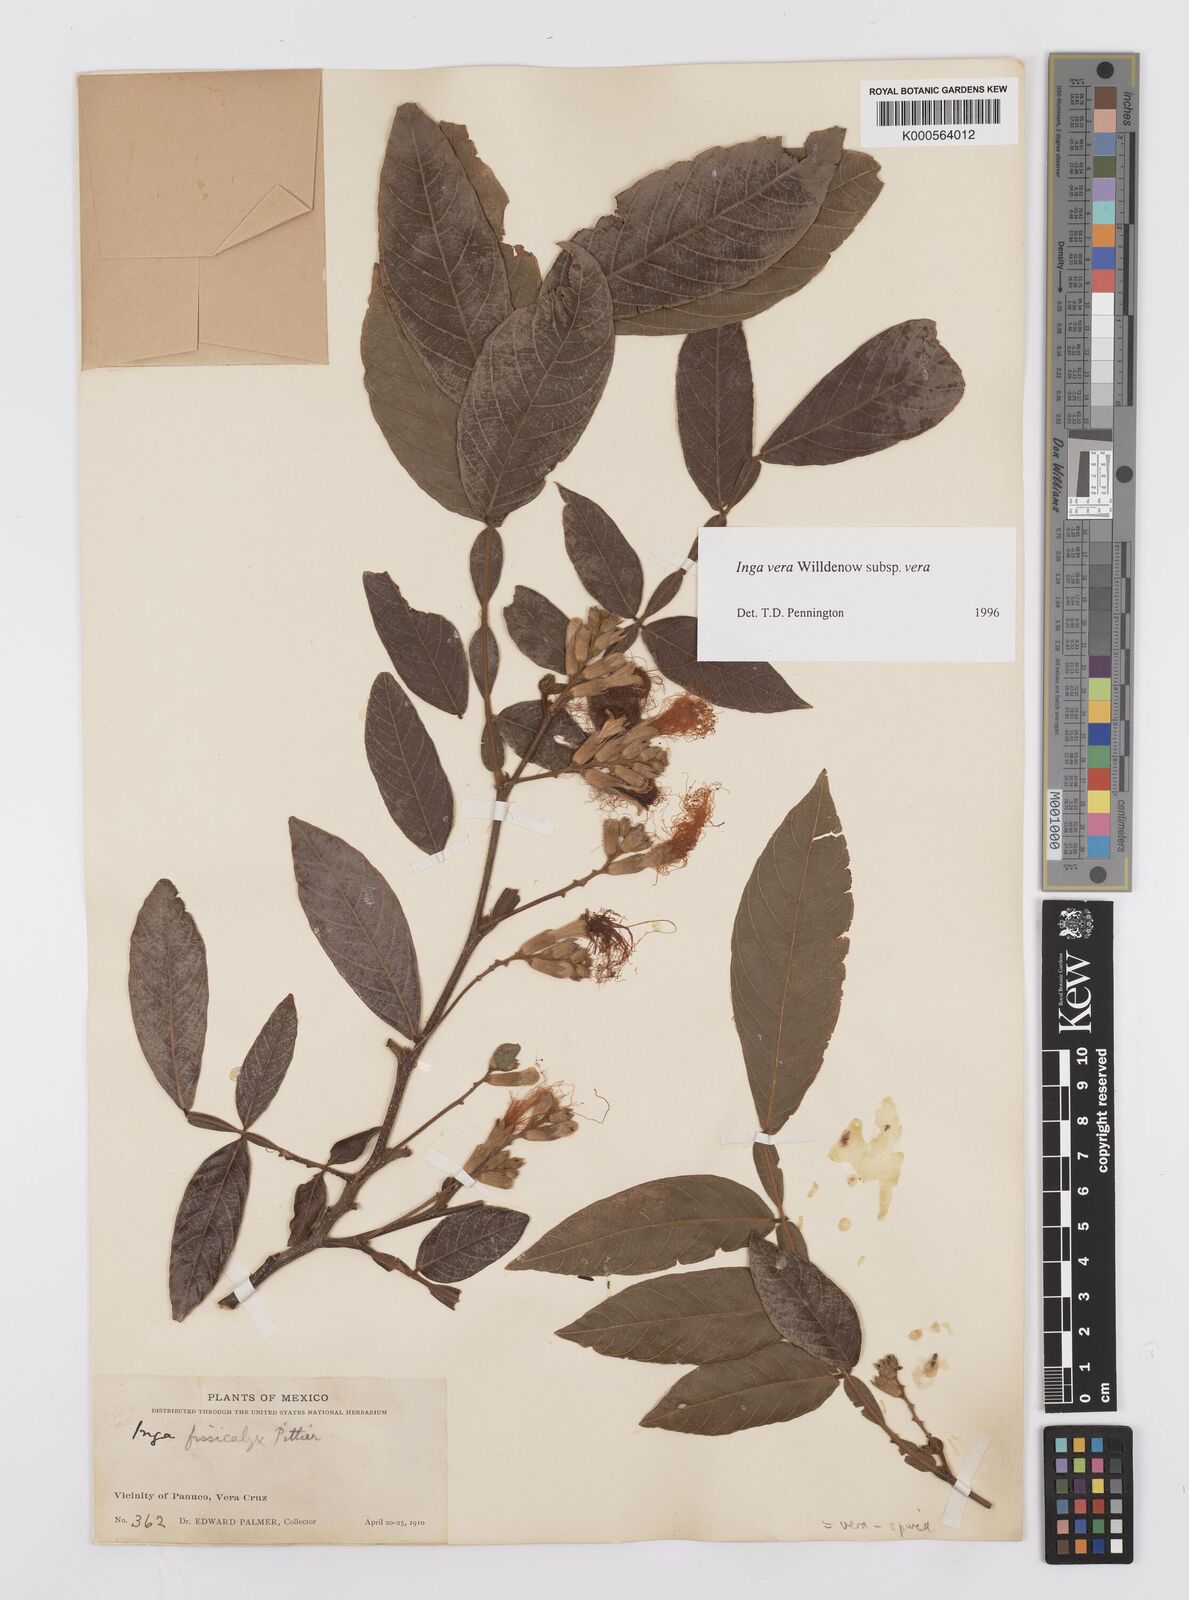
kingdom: Plantae
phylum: Tracheophyta
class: Magnoliopsida
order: Fabales
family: Fabaceae
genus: Inga
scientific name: Inga vera
